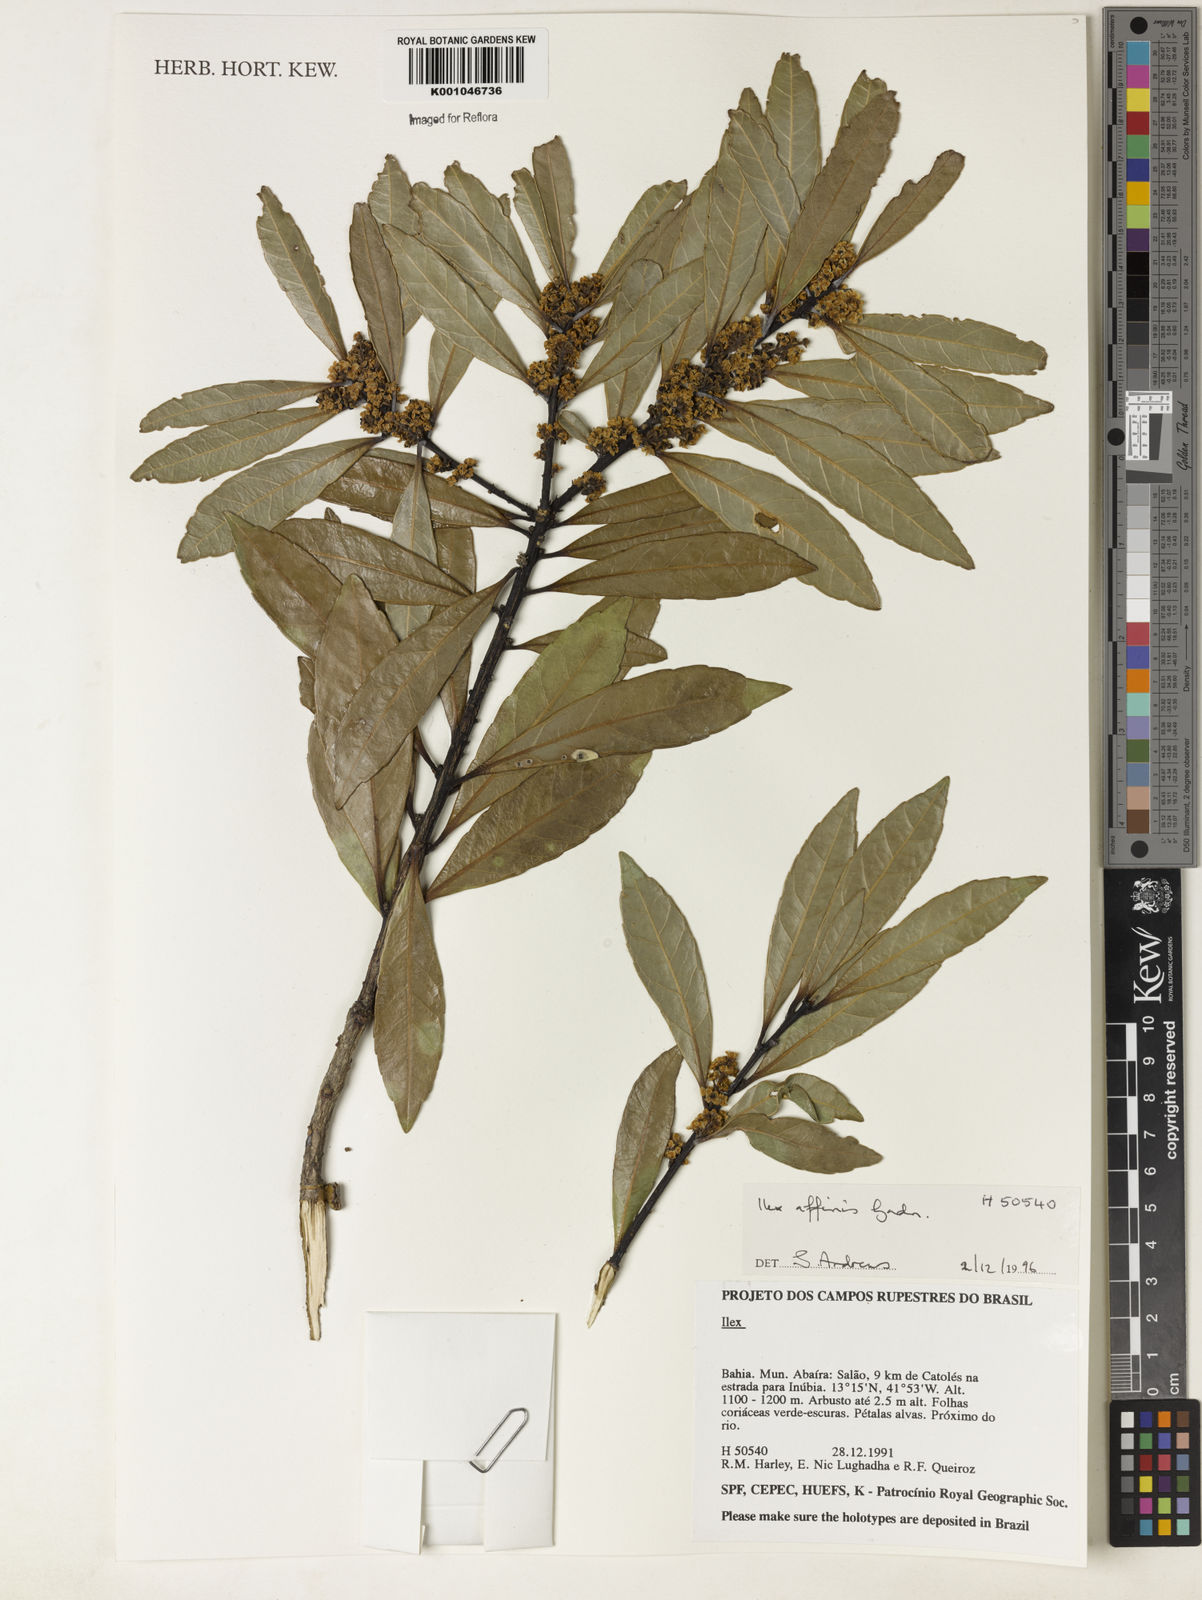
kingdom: Plantae
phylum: Tracheophyta
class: Magnoliopsida
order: Aquifoliales
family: Aquifoliaceae
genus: Ilex
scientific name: Ilex affinis
